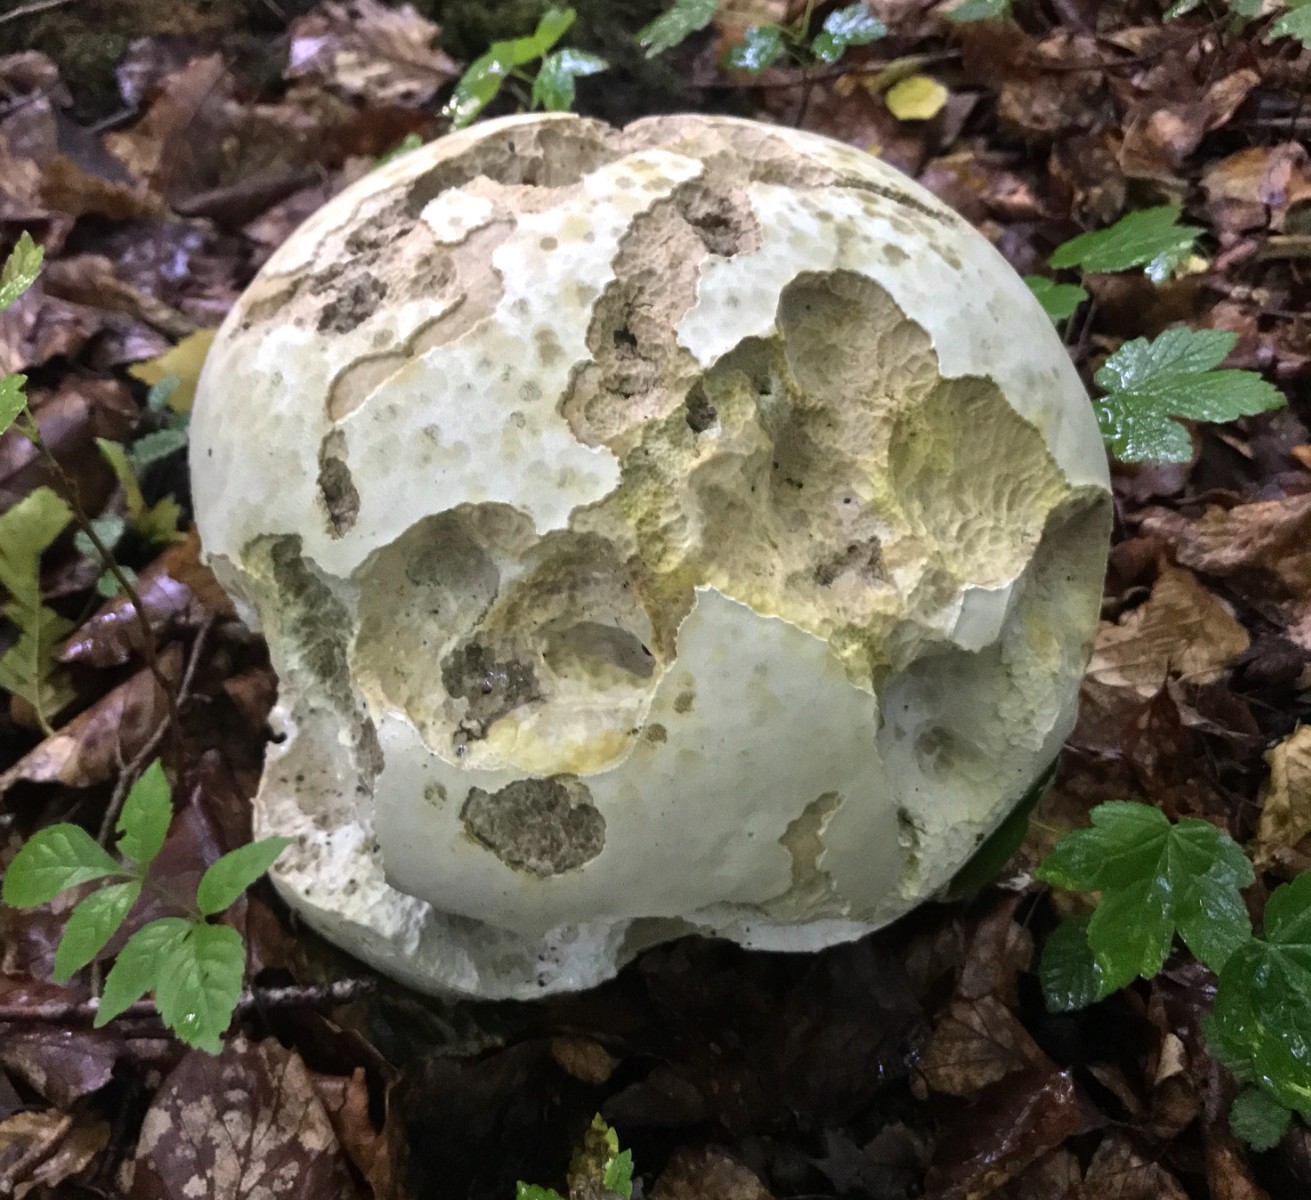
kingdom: Fungi
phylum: Basidiomycota
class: Agaricomycetes
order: Agaricales
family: Lycoperdaceae
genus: Calvatia
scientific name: Calvatia gigantea
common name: kæmpestøvbold
